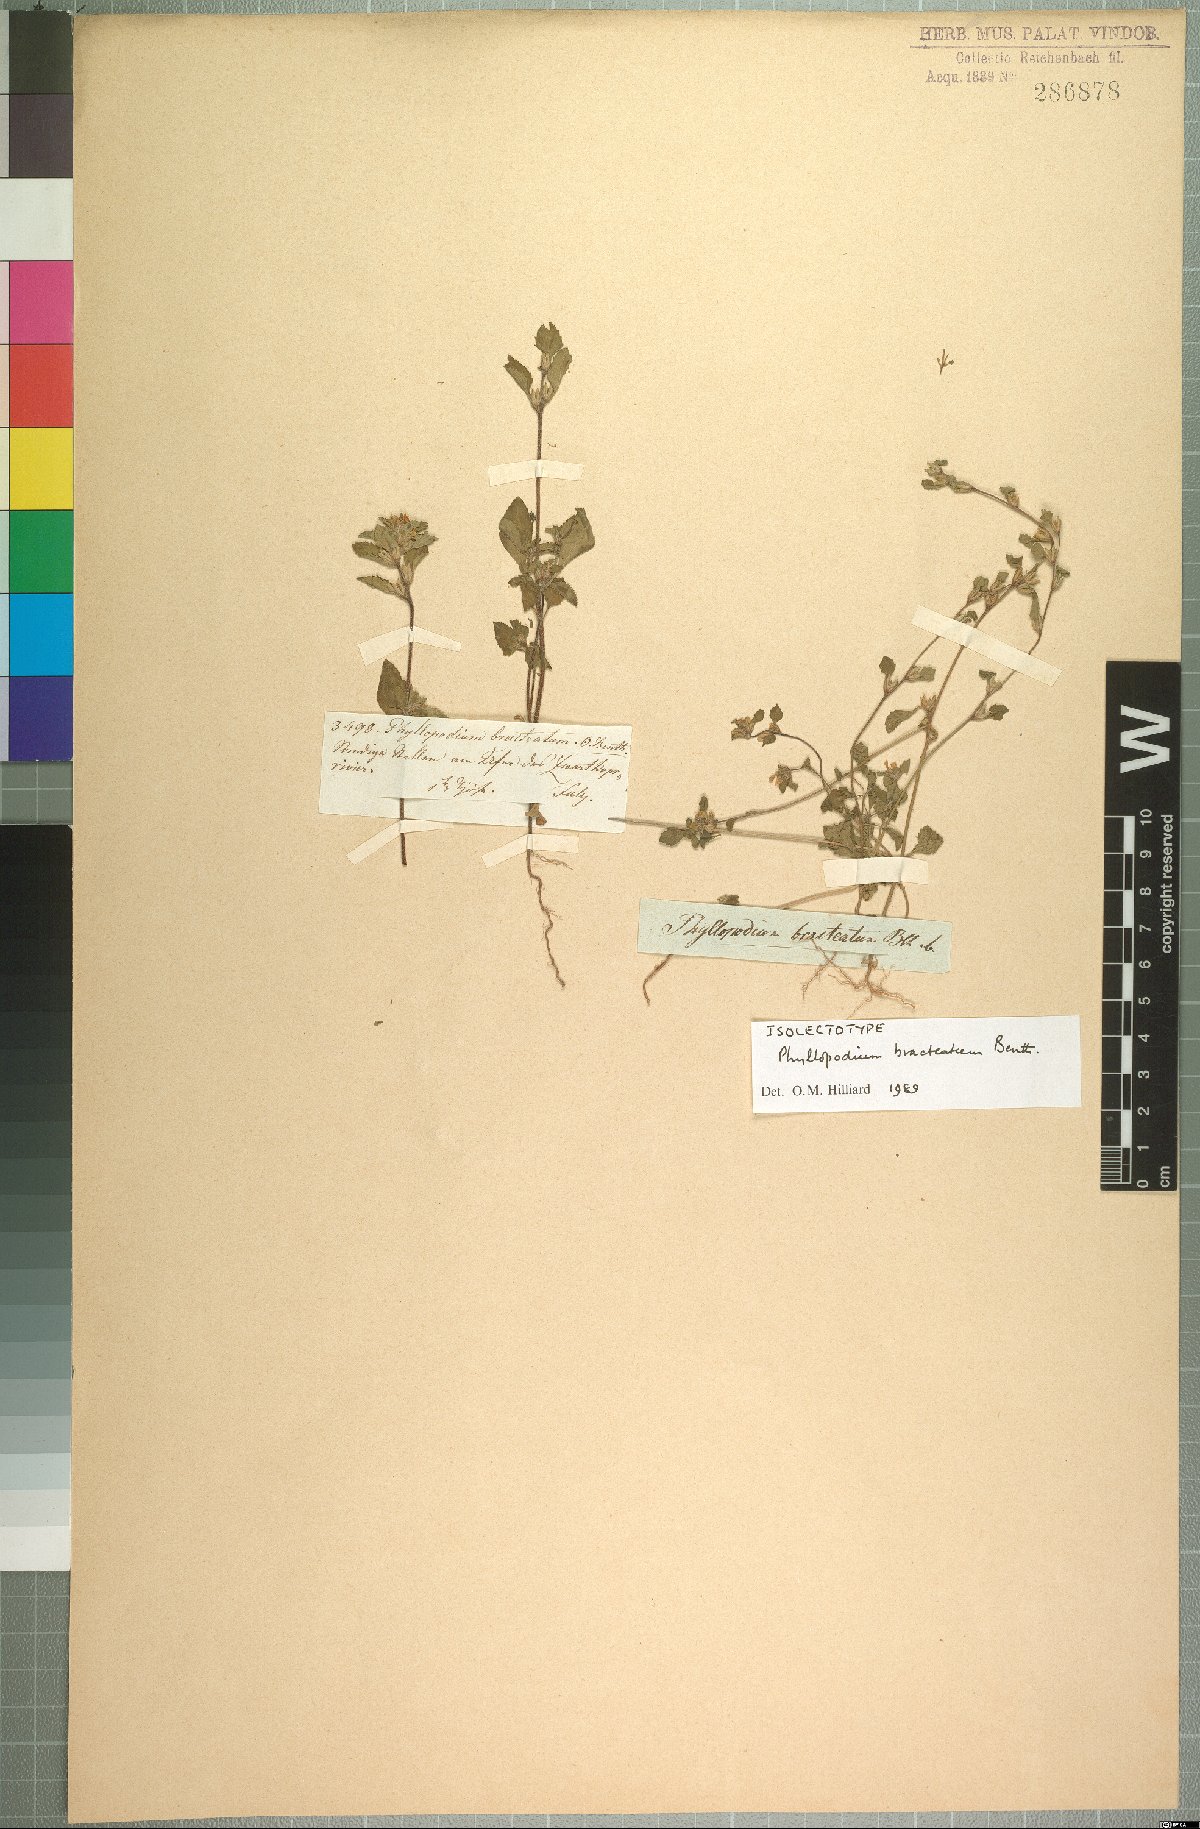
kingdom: Plantae
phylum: Tracheophyta
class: Magnoliopsida
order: Lamiales
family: Scrophulariaceae
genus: Phyllopodium
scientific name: Phyllopodium bracteatum
